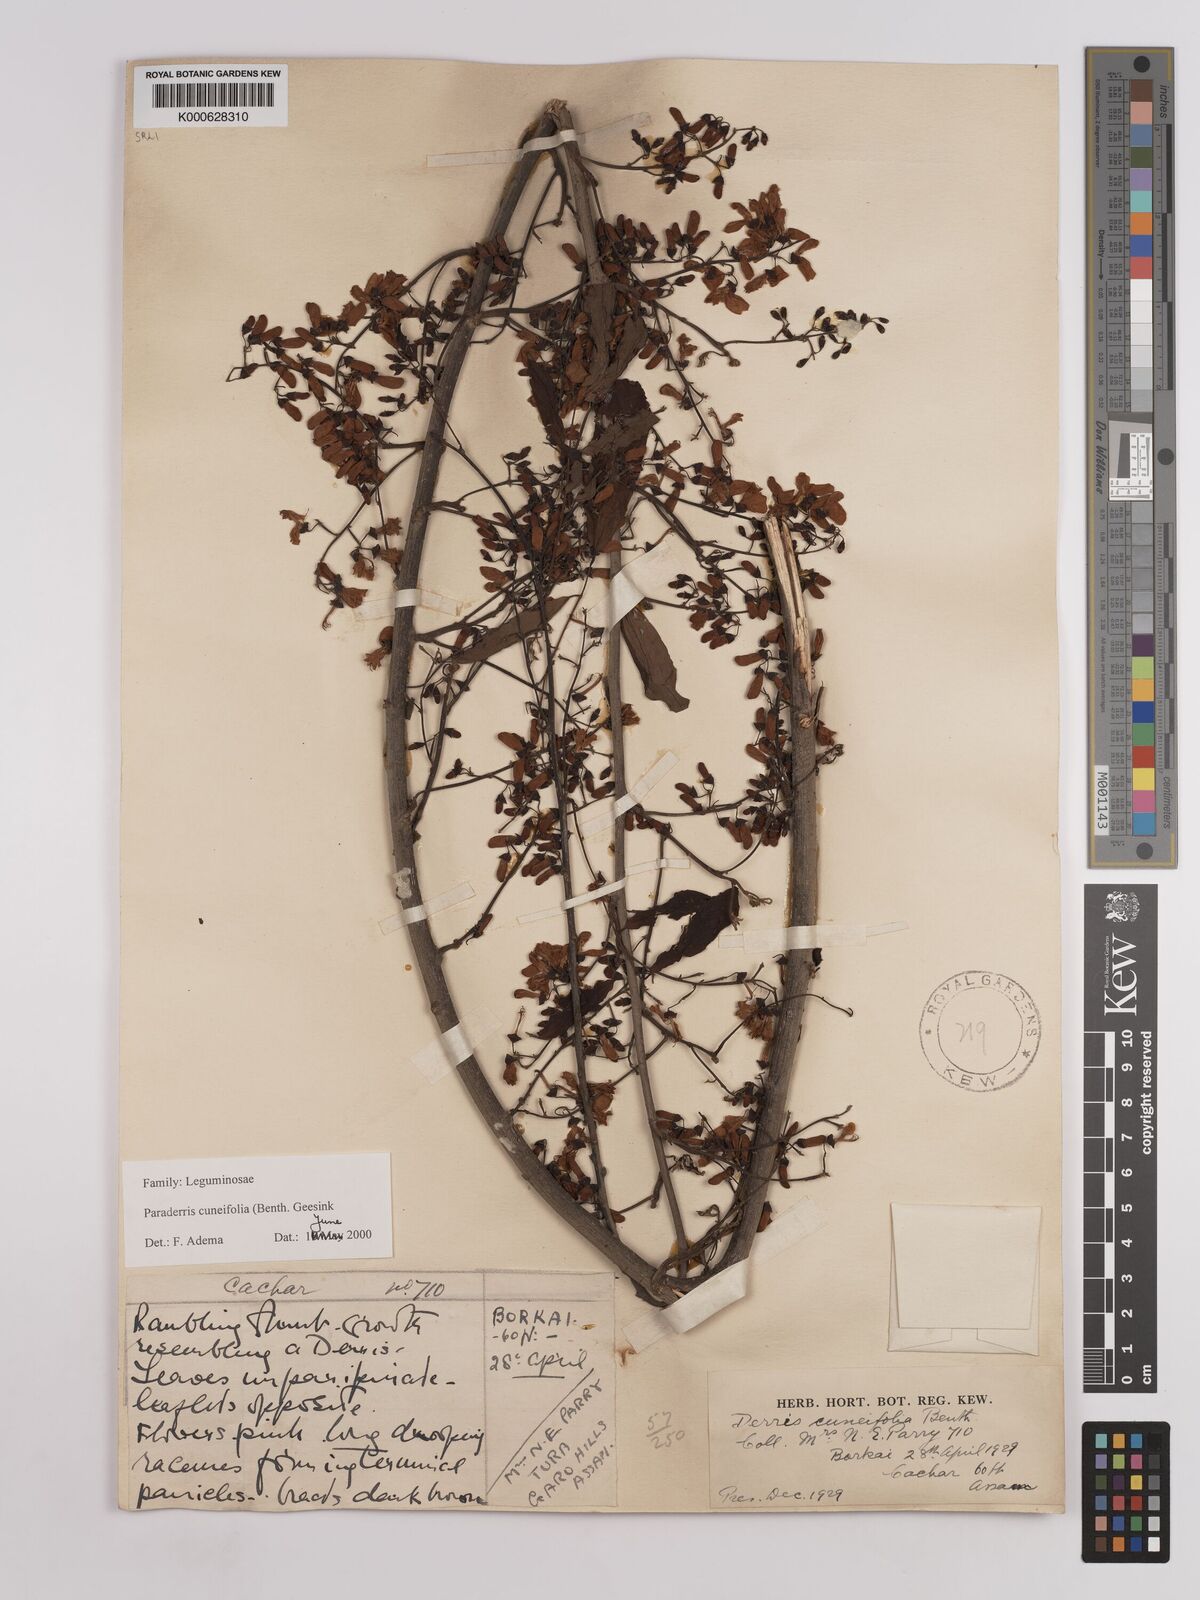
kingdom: Plantae
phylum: Tracheophyta
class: Magnoliopsida
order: Fabales
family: Fabaceae
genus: Derris
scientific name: Derris cuneifolia
